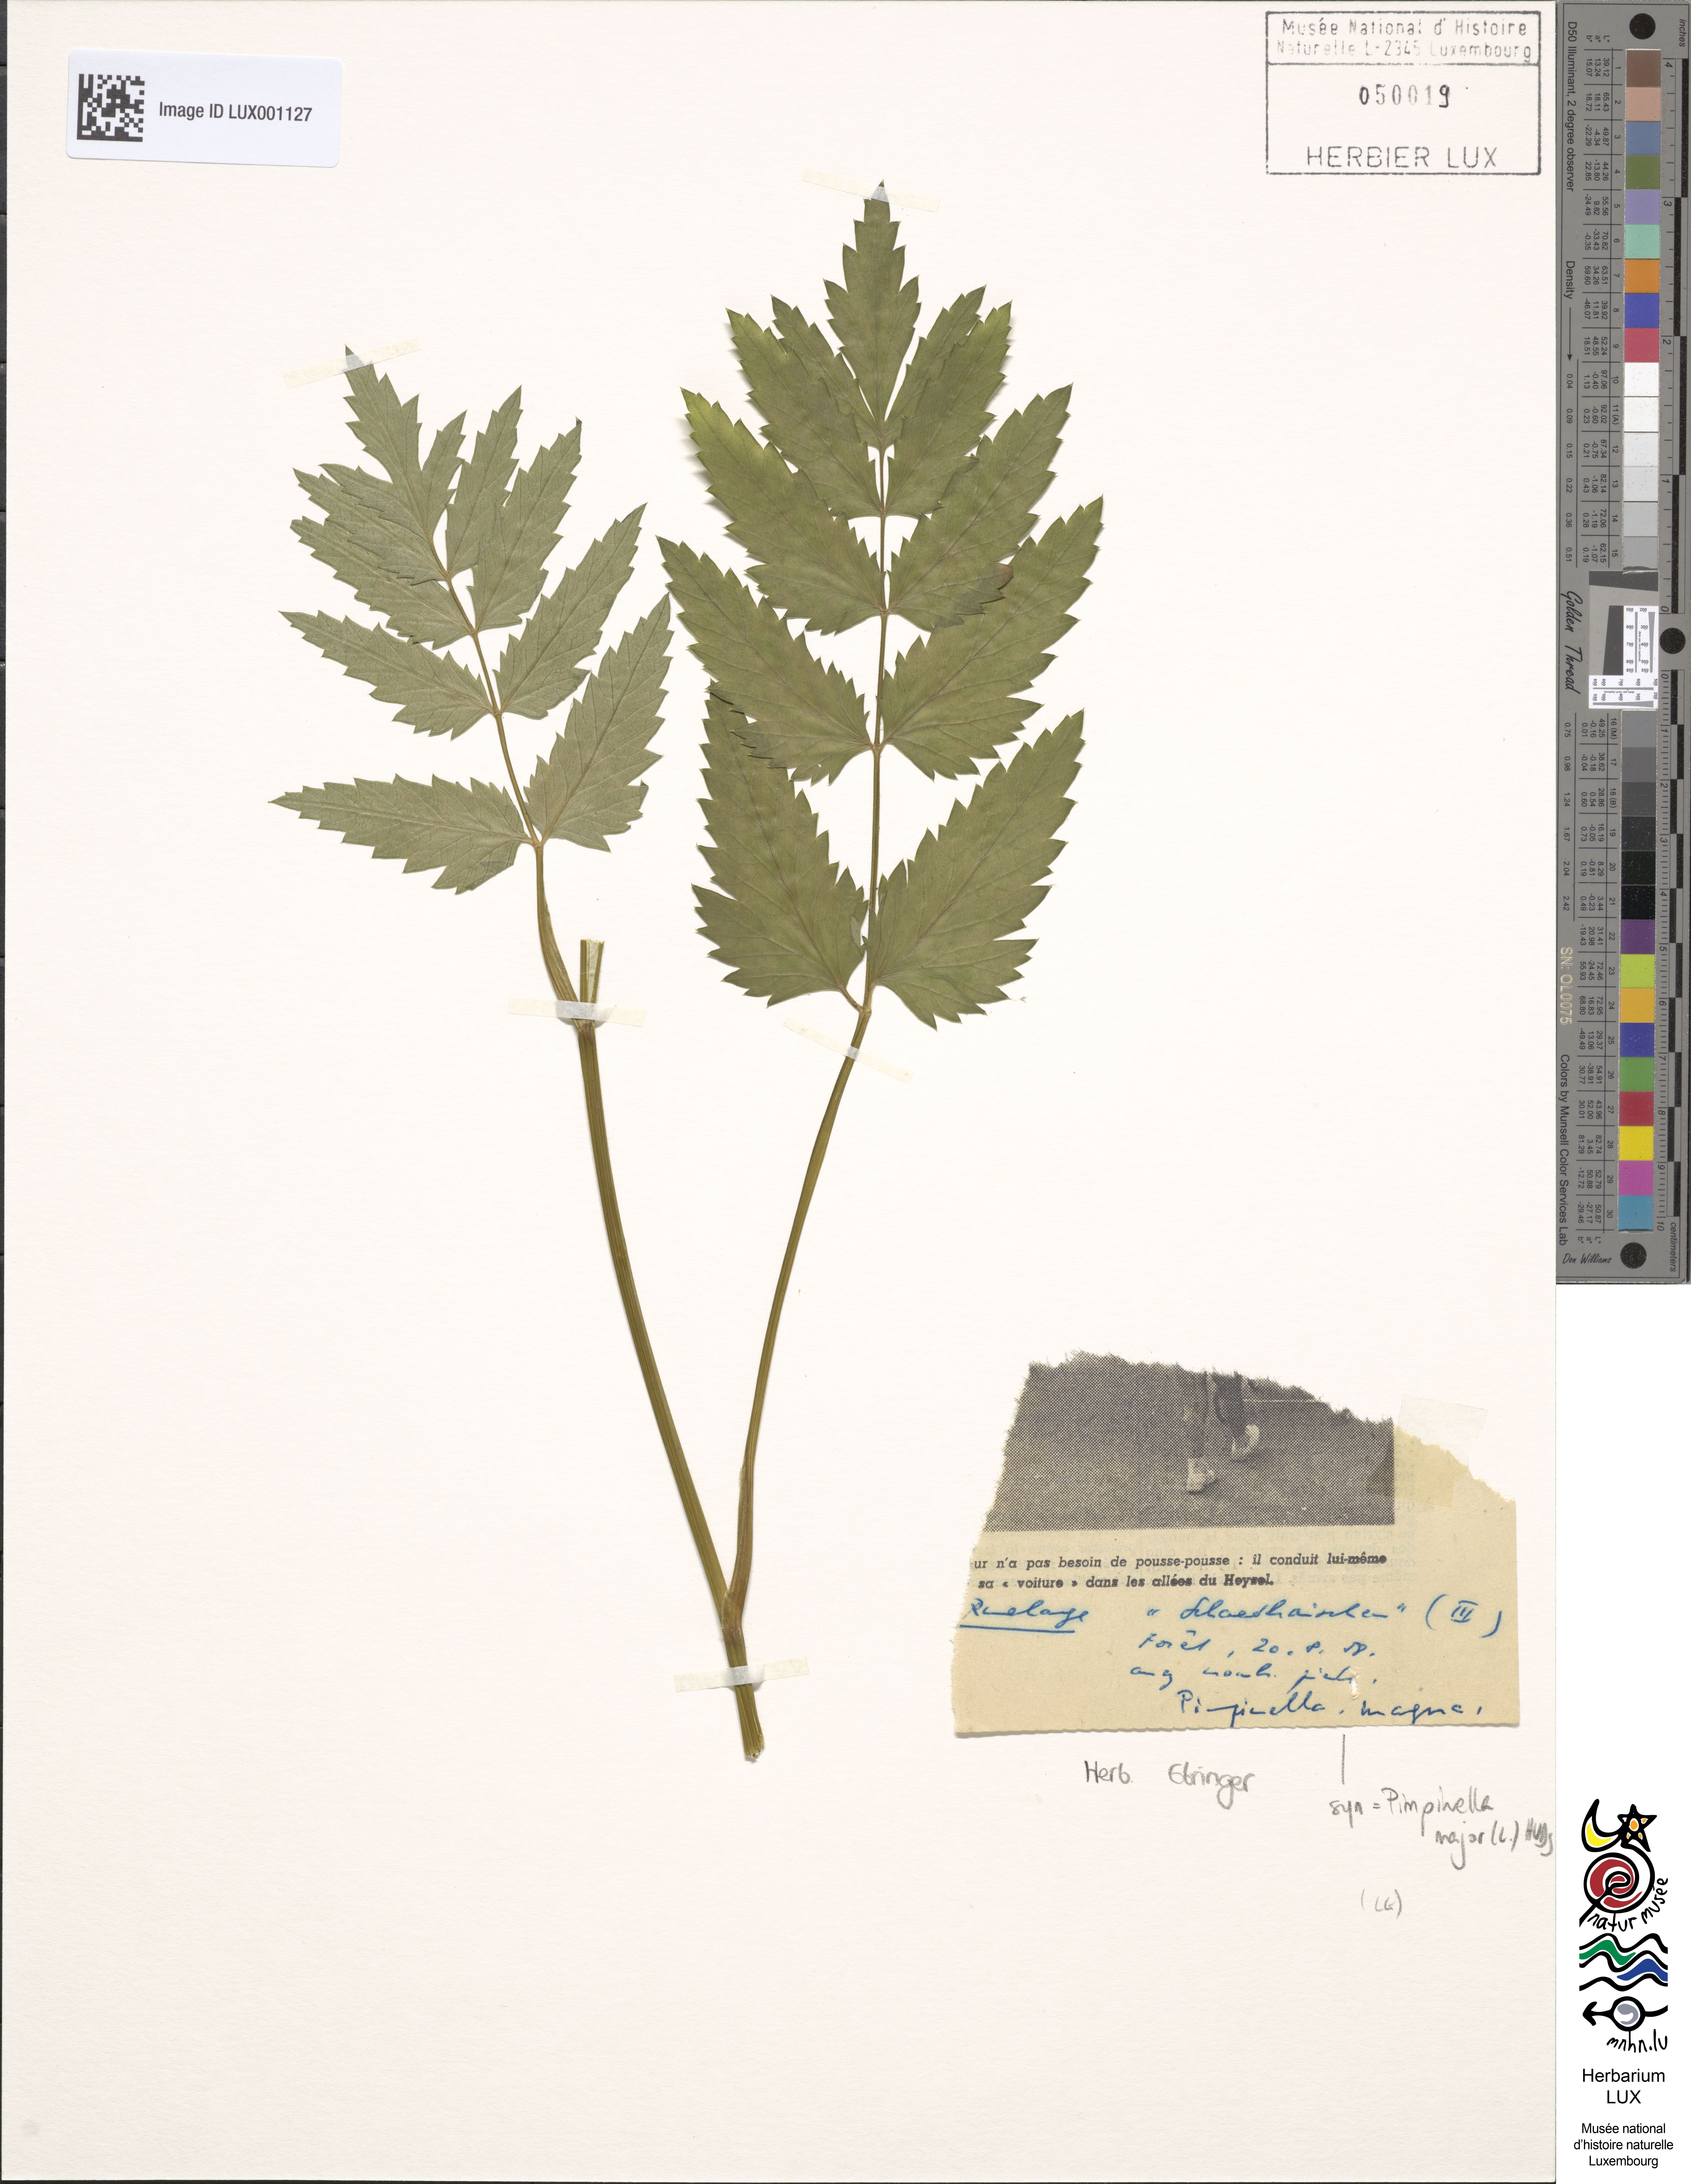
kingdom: Plantae
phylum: Tracheophyta
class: Magnoliopsida
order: Apiales
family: Apiaceae
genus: Pimpinella
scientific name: Pimpinella major
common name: Greater burnet-saxifrage
